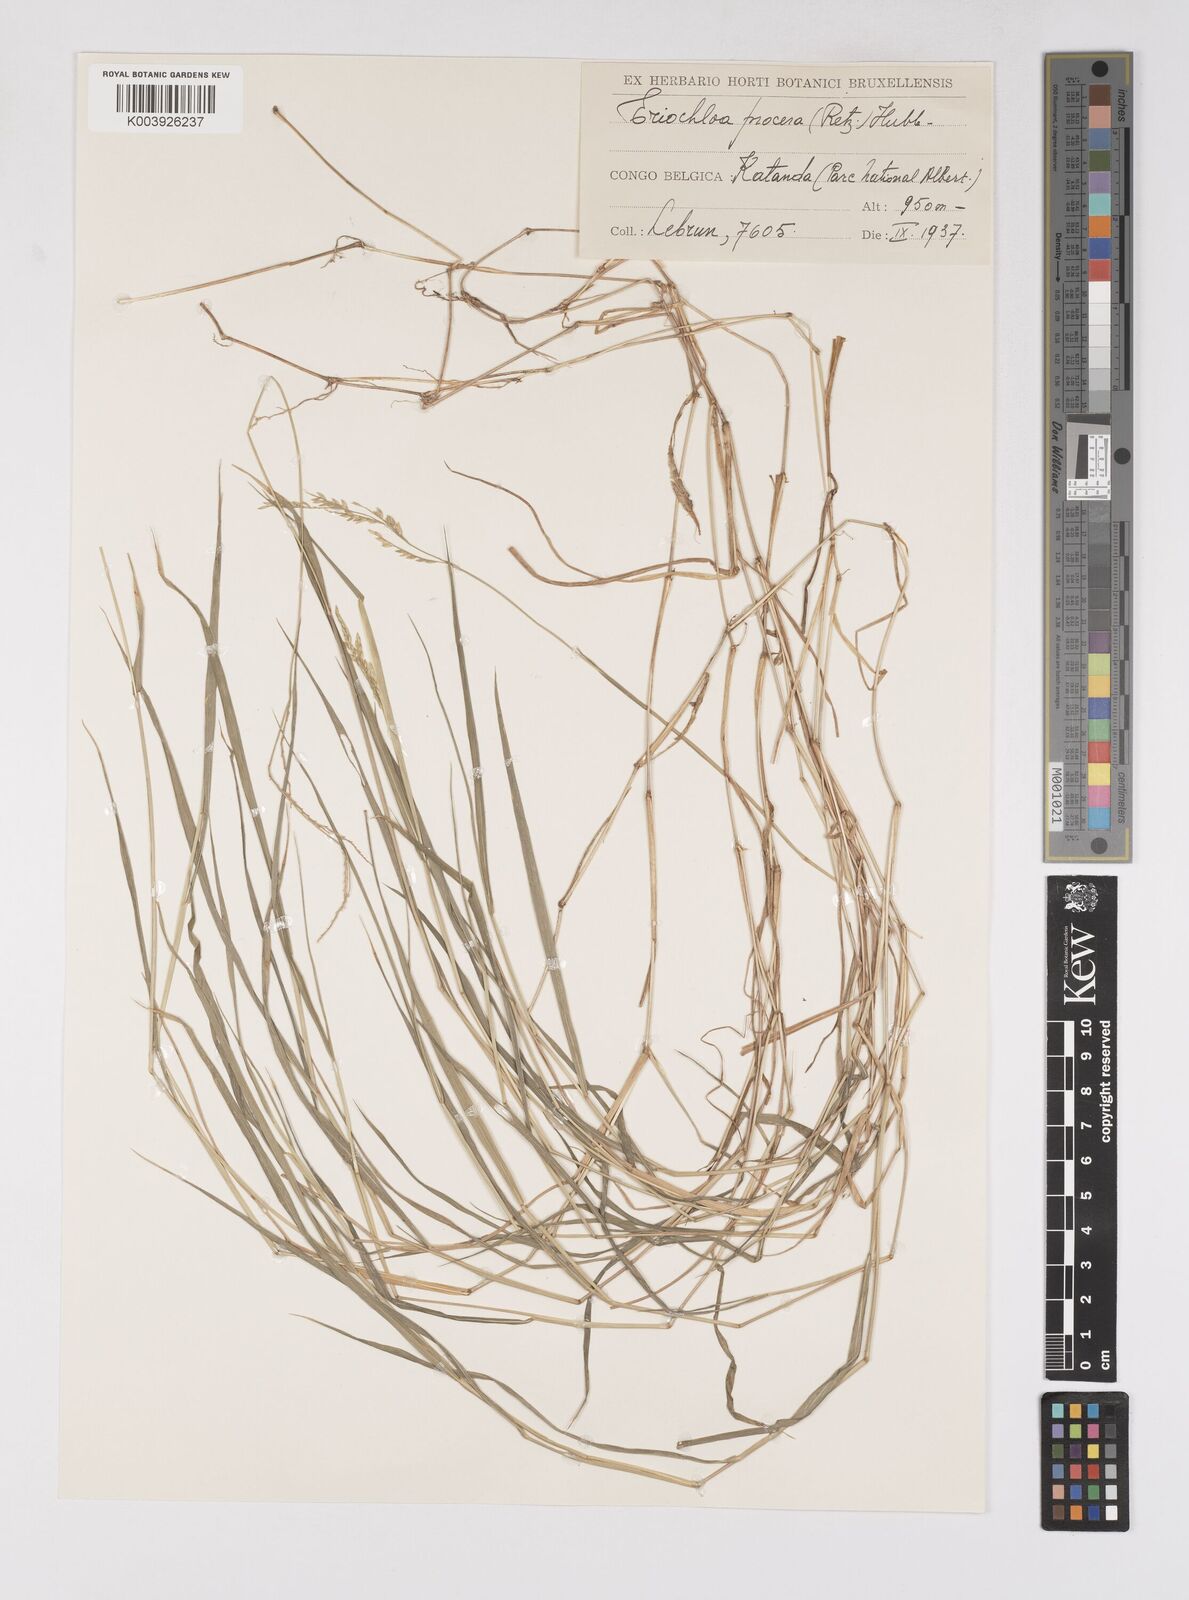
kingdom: Plantae
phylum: Tracheophyta
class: Liliopsida
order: Poales
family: Poaceae
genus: Eriochloa
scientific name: Eriochloa procera
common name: Spring grass
